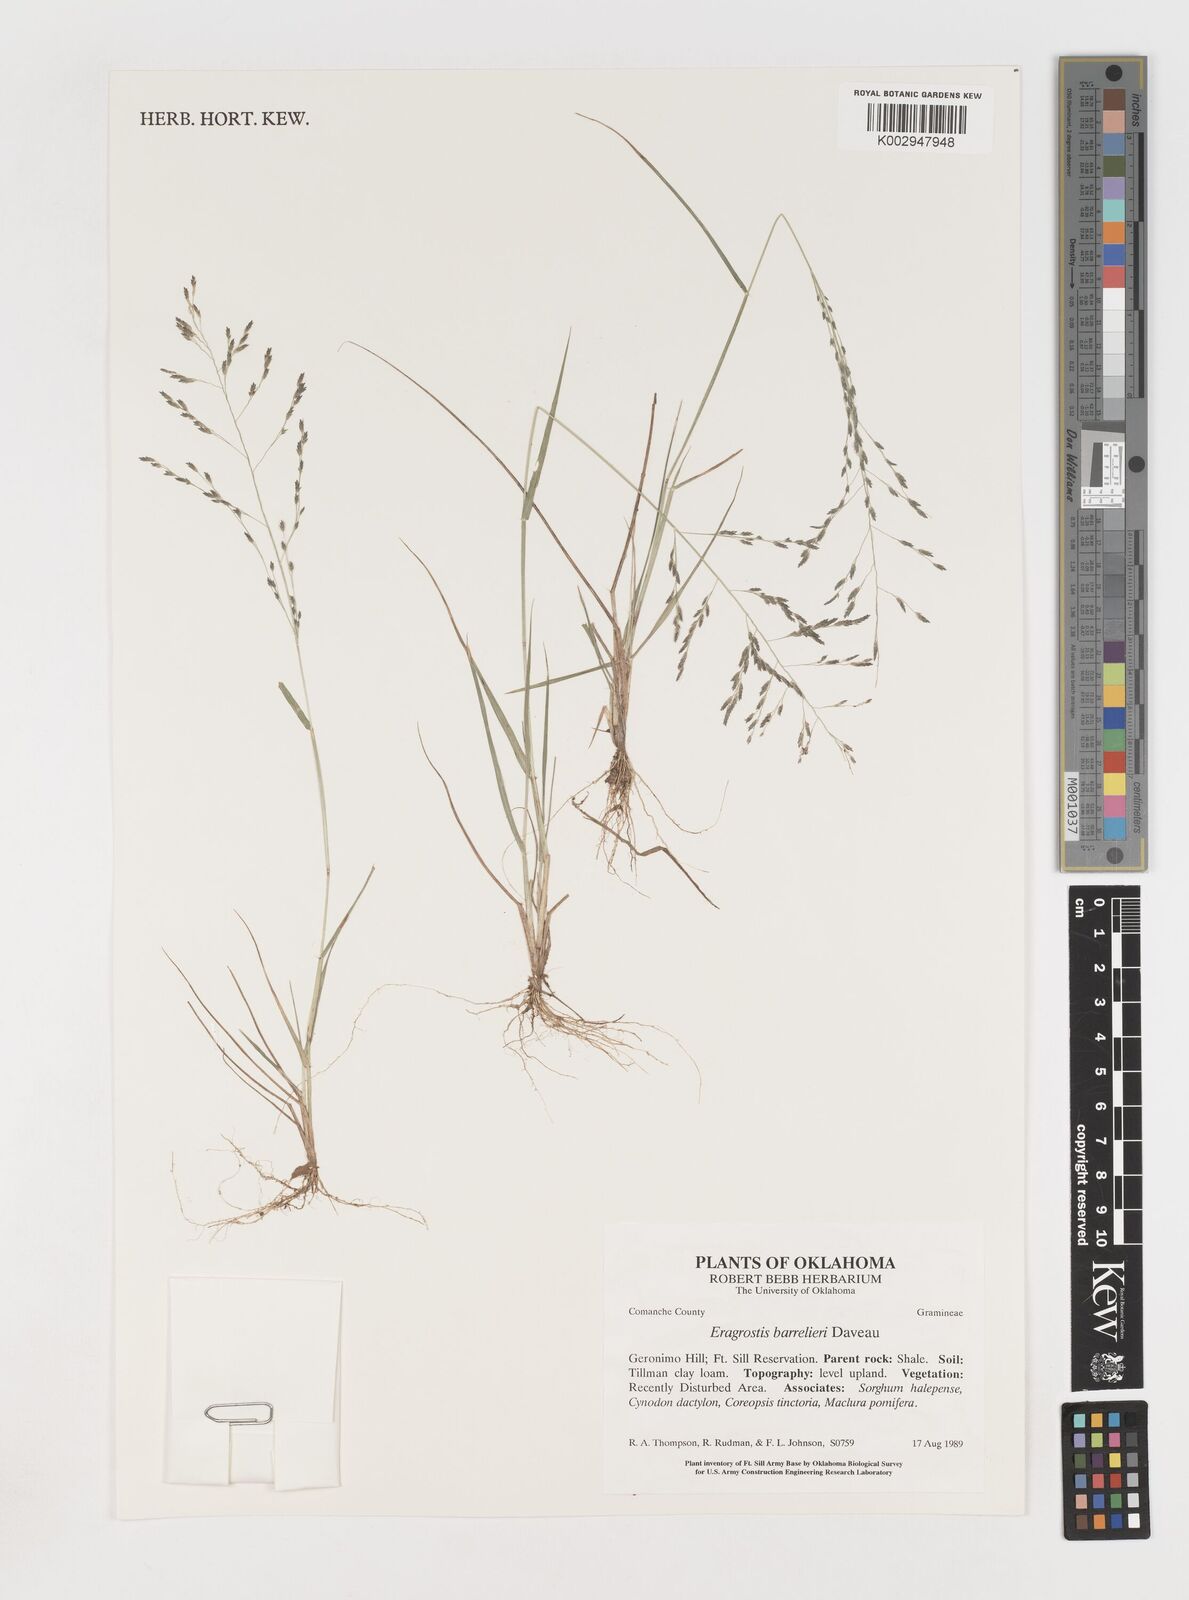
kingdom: Plantae
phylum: Tracheophyta
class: Liliopsida
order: Poales
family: Poaceae
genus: Eragrostis
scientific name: Eragrostis barrelieri
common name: Mediterranean lovegrass
